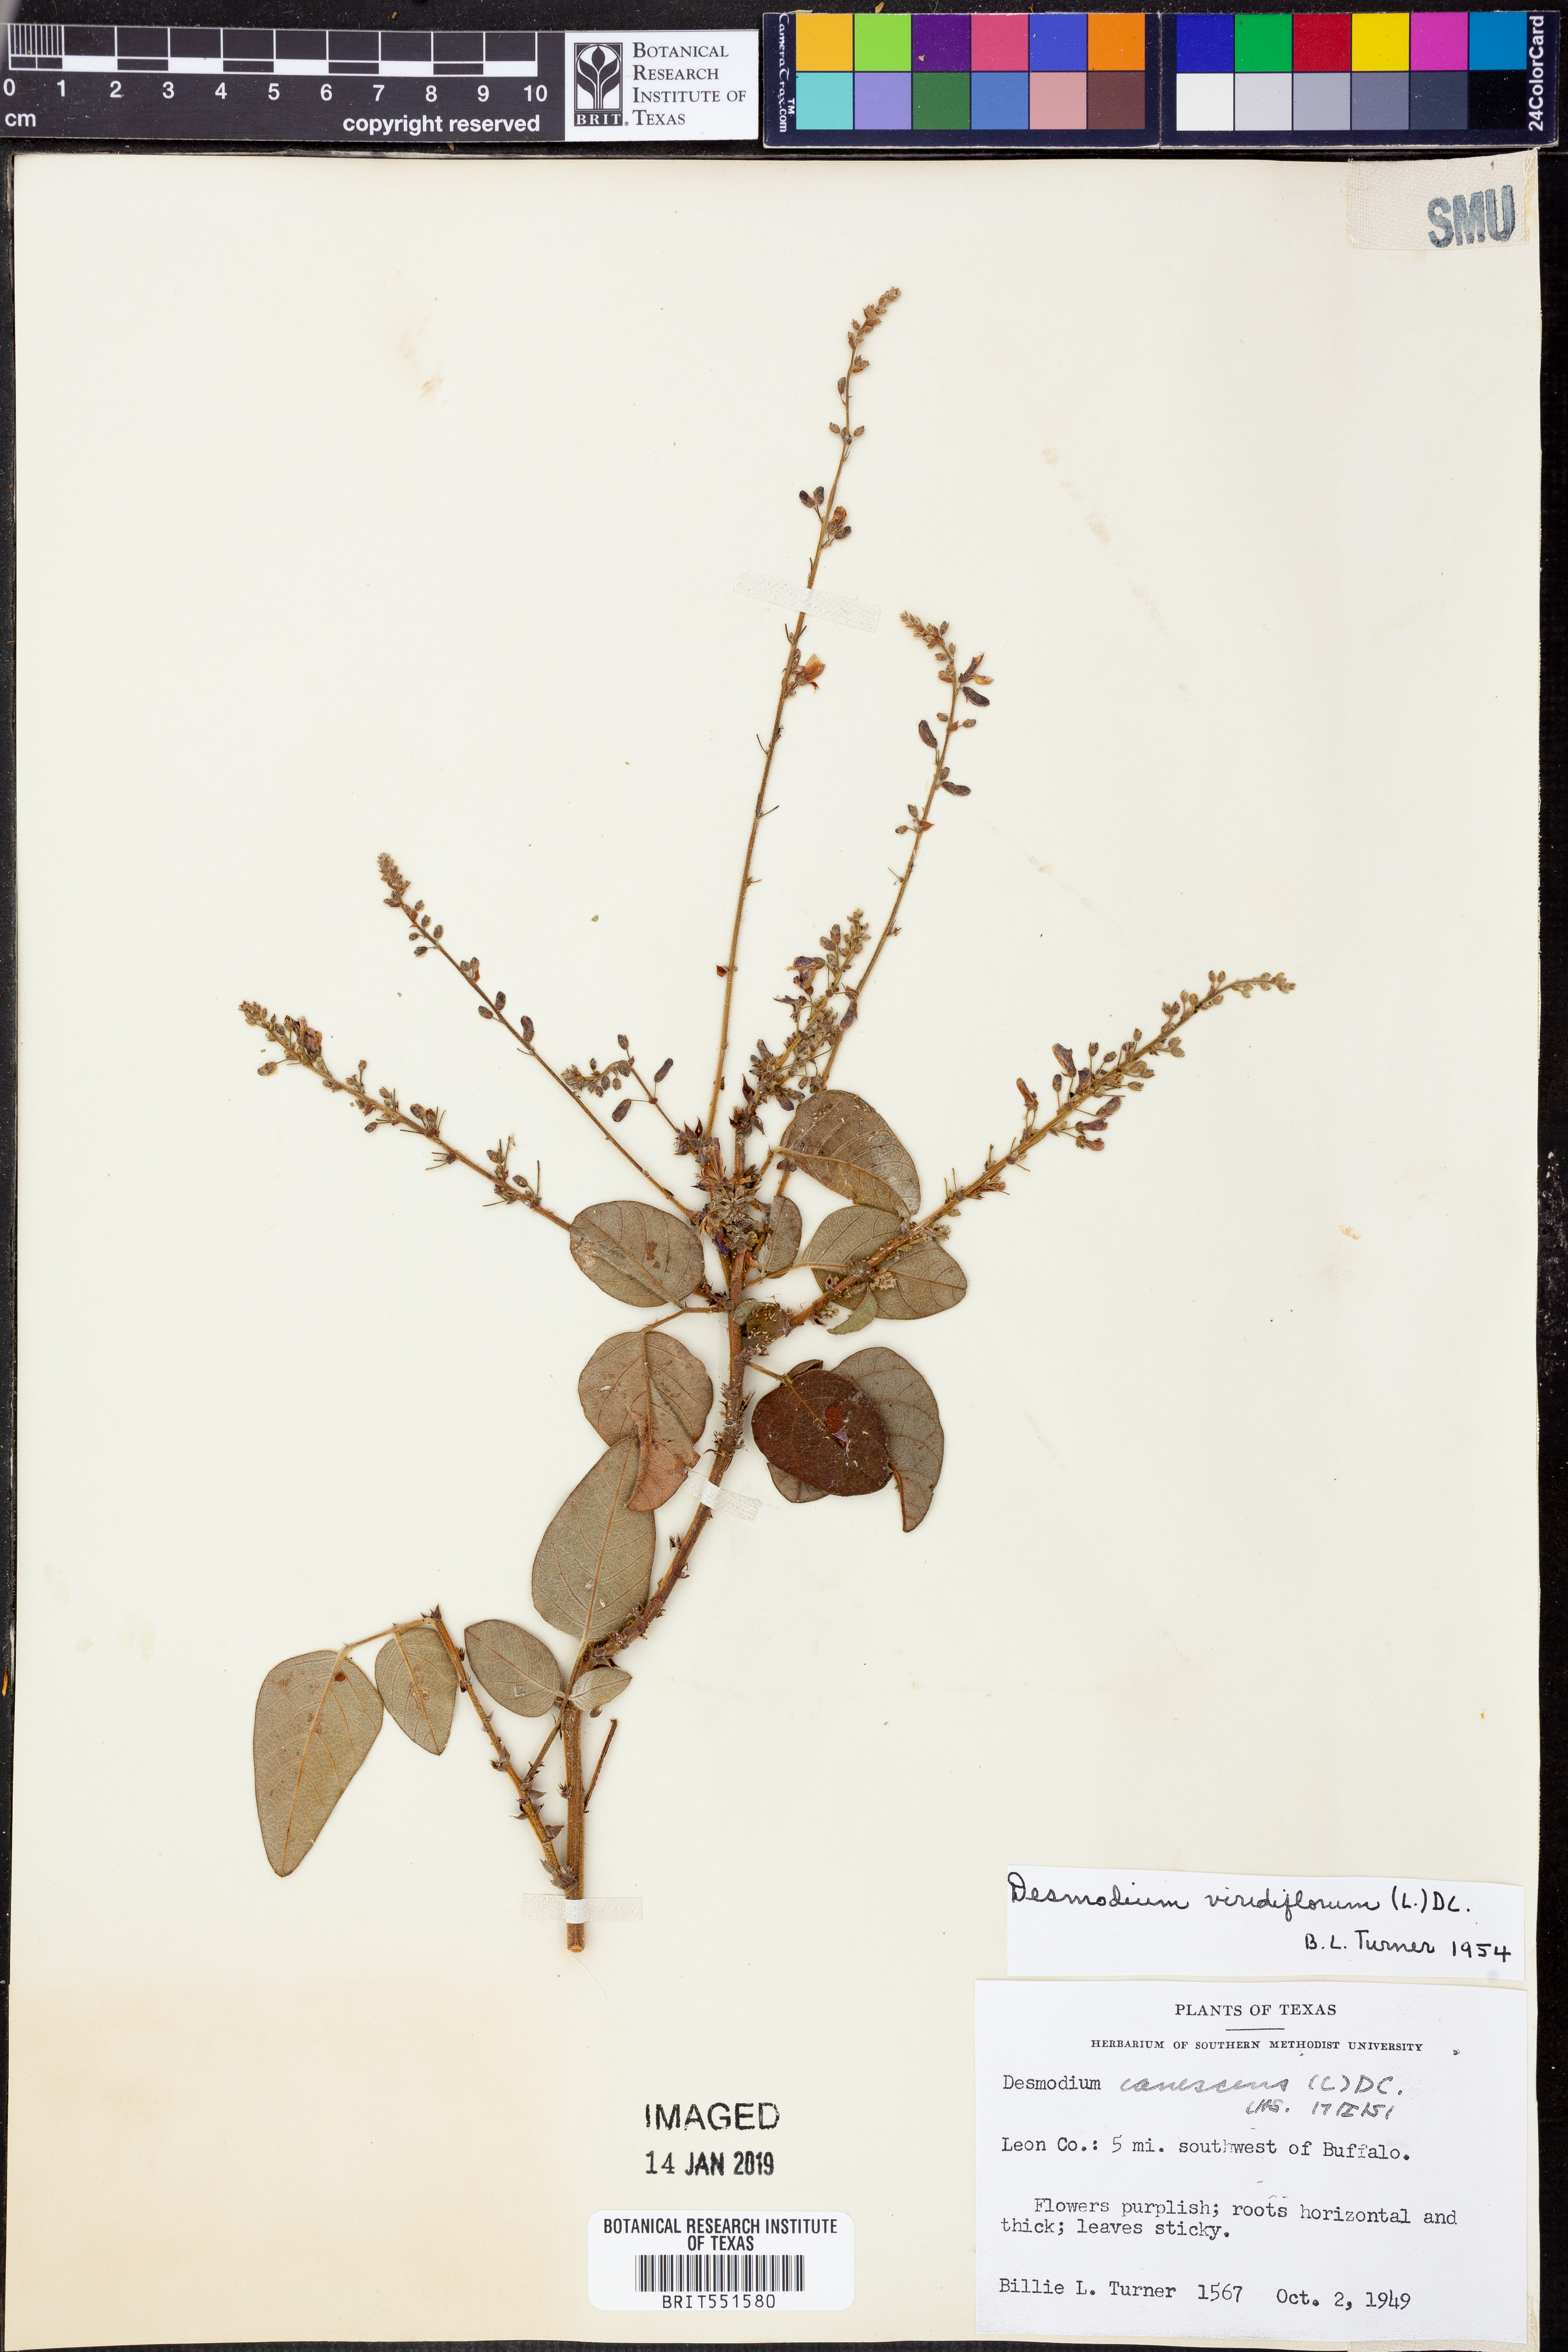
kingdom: Plantae
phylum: Tracheophyta
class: Magnoliopsida
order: Fabales
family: Fabaceae
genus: Desmodium
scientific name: Desmodium viridiflorum
